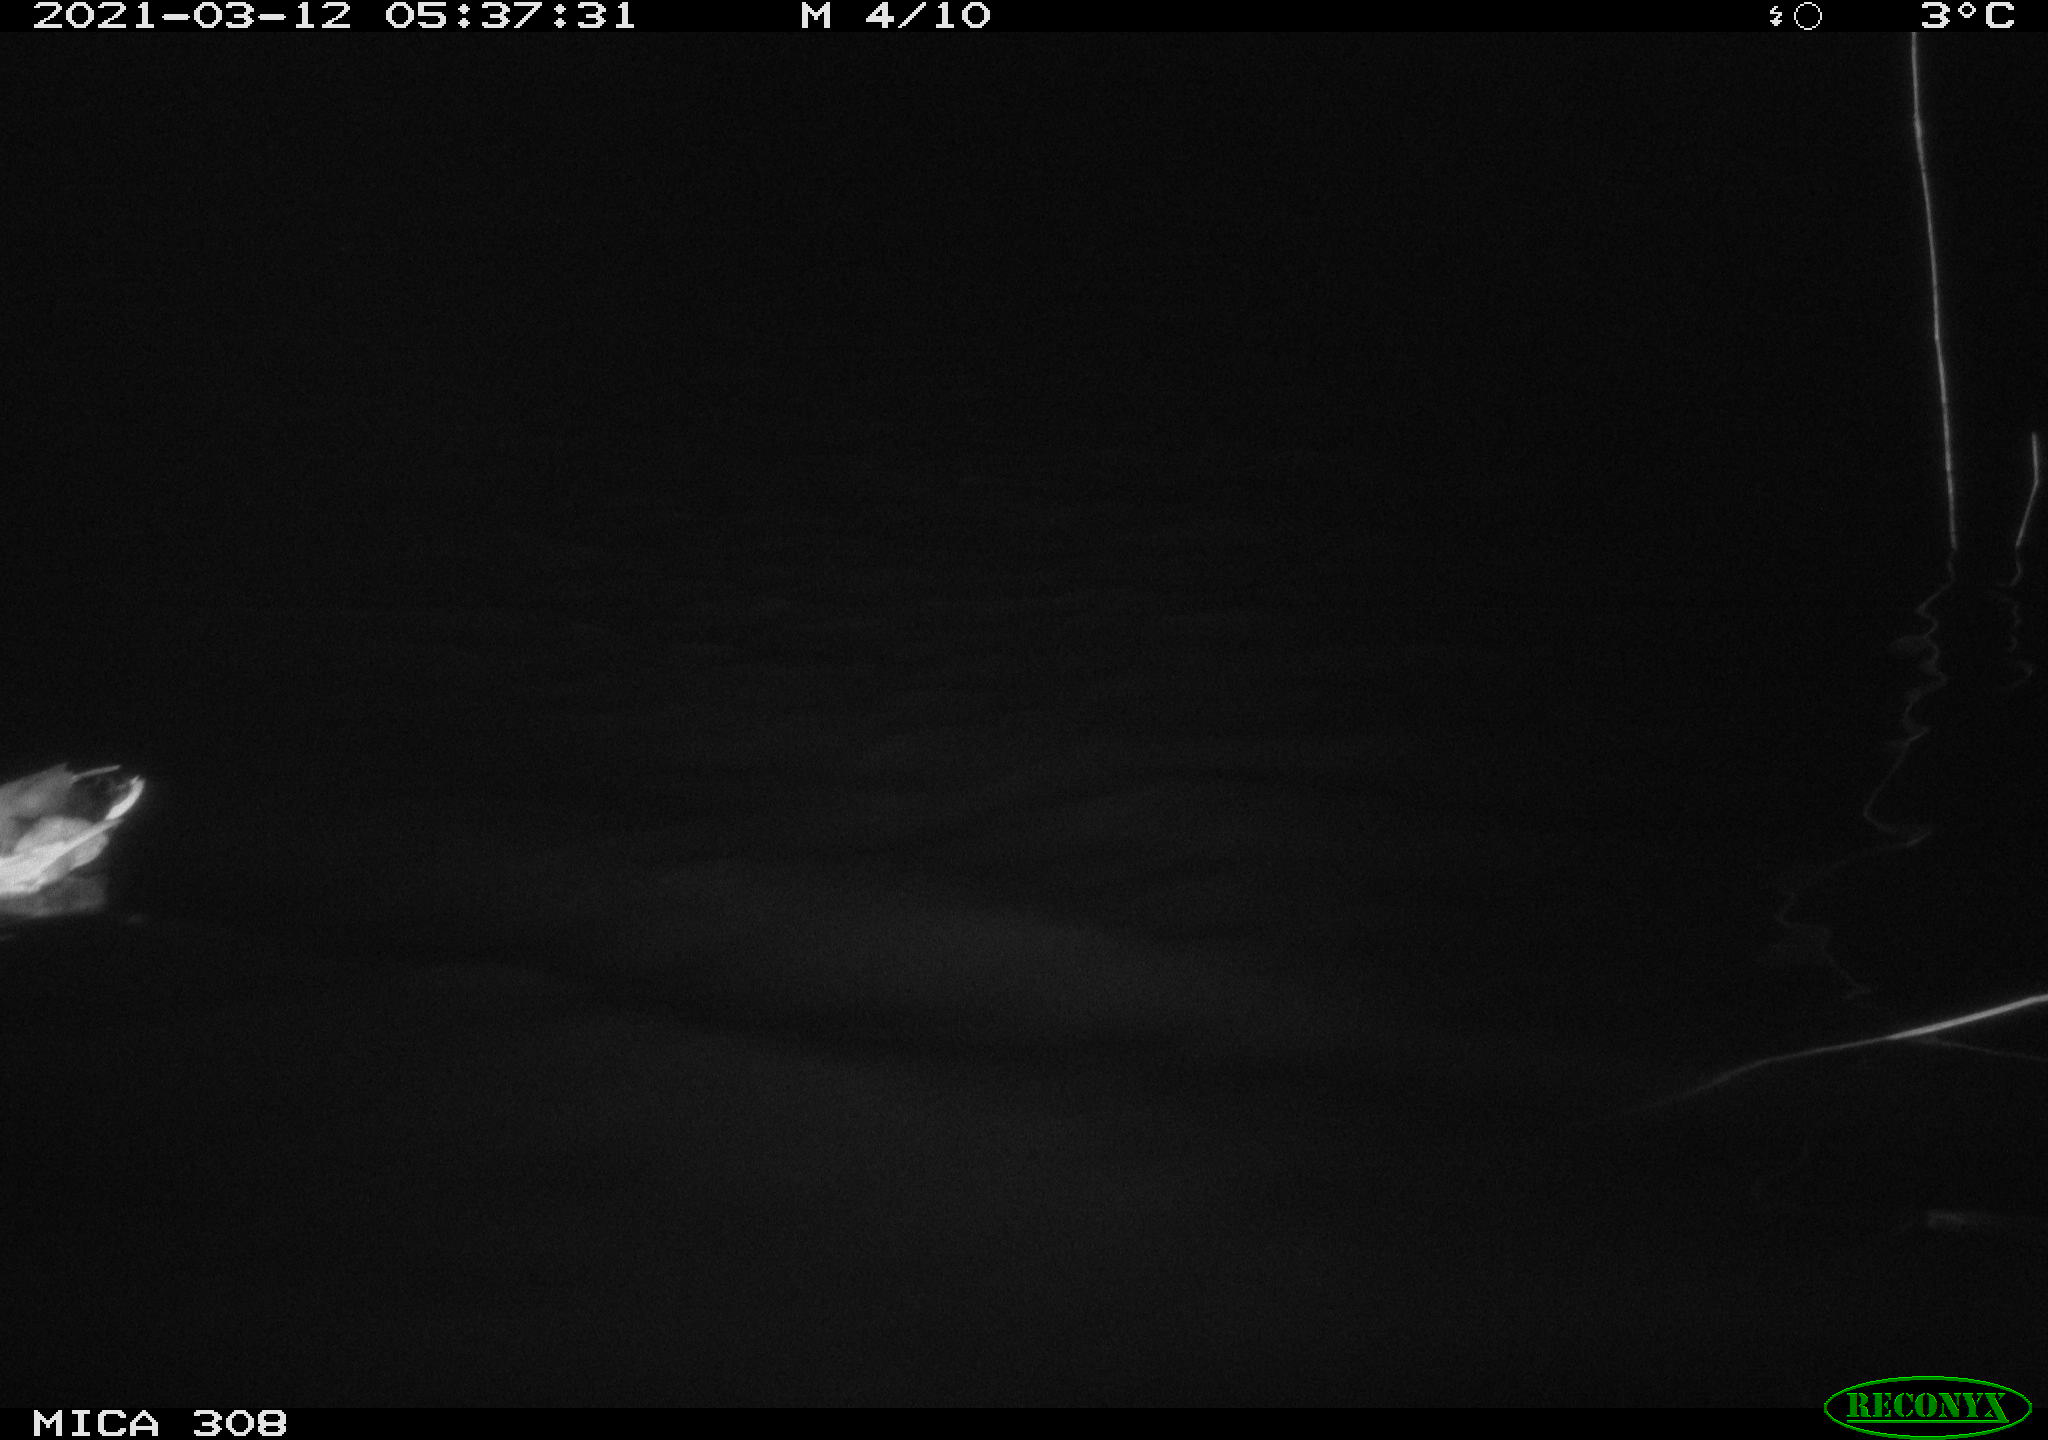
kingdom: Animalia
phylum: Chordata
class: Aves
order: Anseriformes
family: Anatidae
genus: Anas
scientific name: Anas platyrhynchos
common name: Mallard
